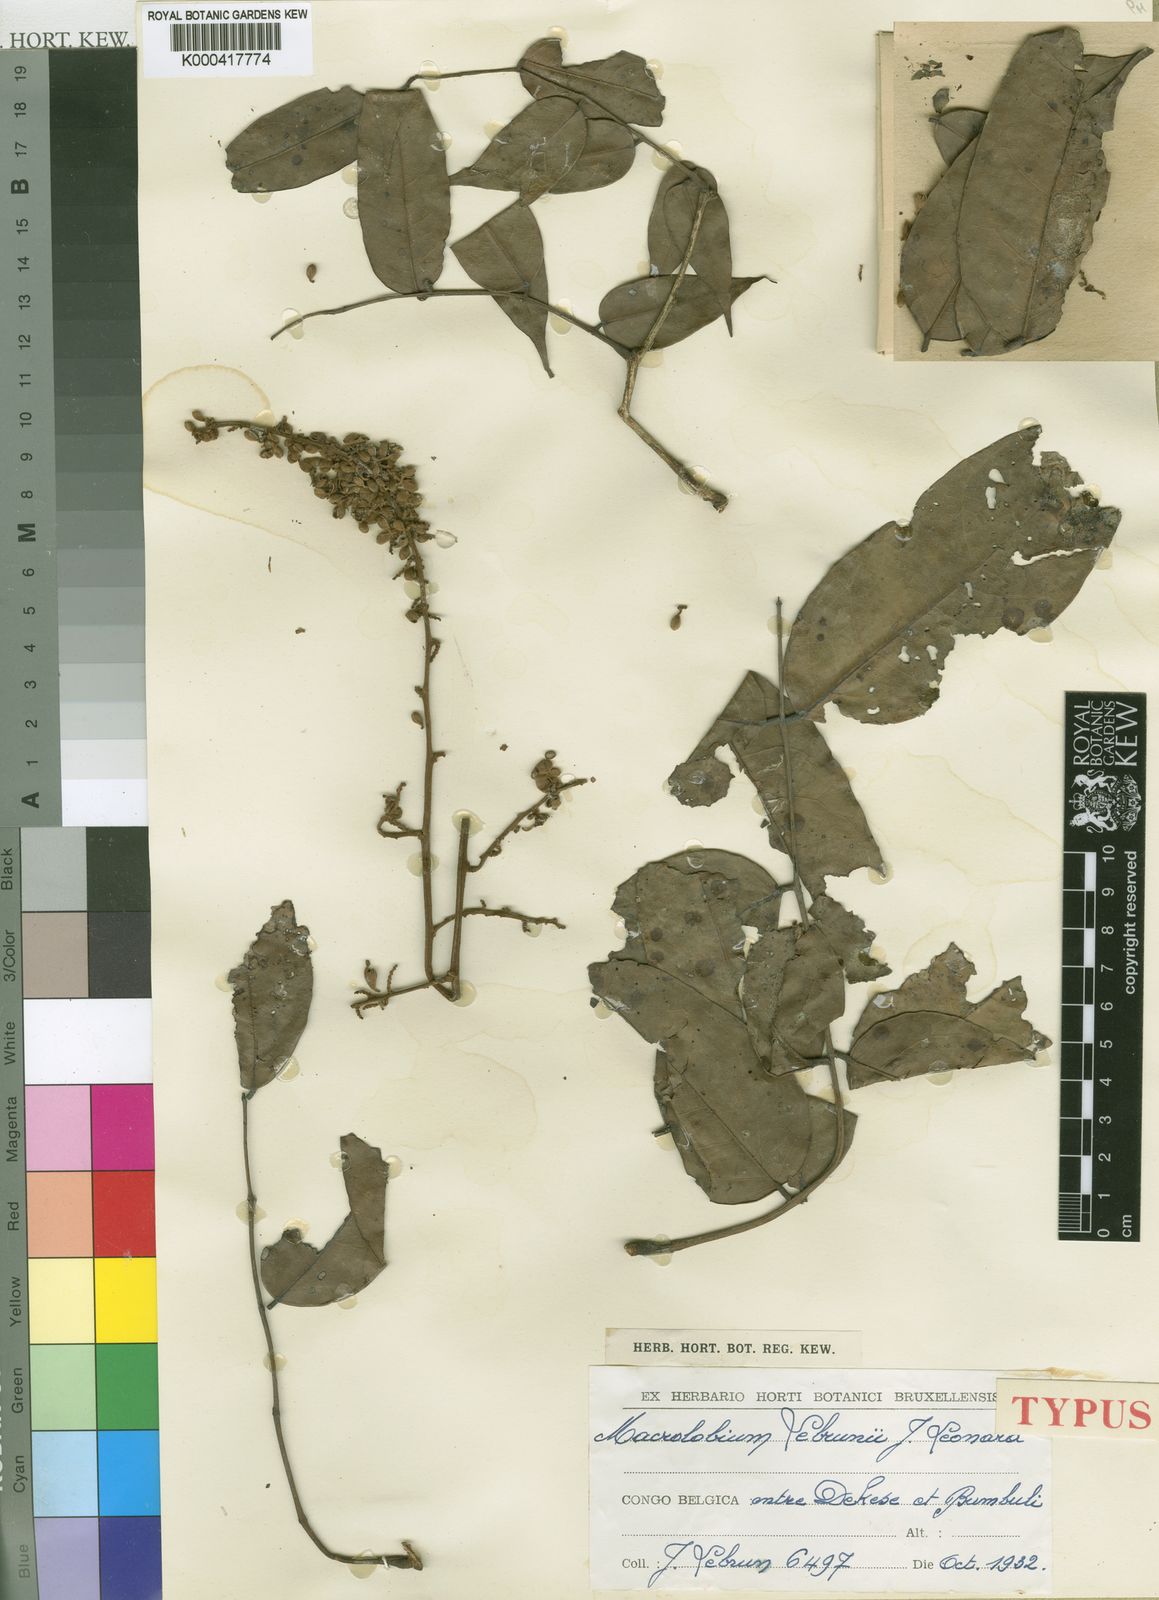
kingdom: Plantae
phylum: Tracheophyta
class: Magnoliopsida
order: Fabales
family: Fabaceae
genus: Englerodendron
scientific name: Englerodendron lebrunii
